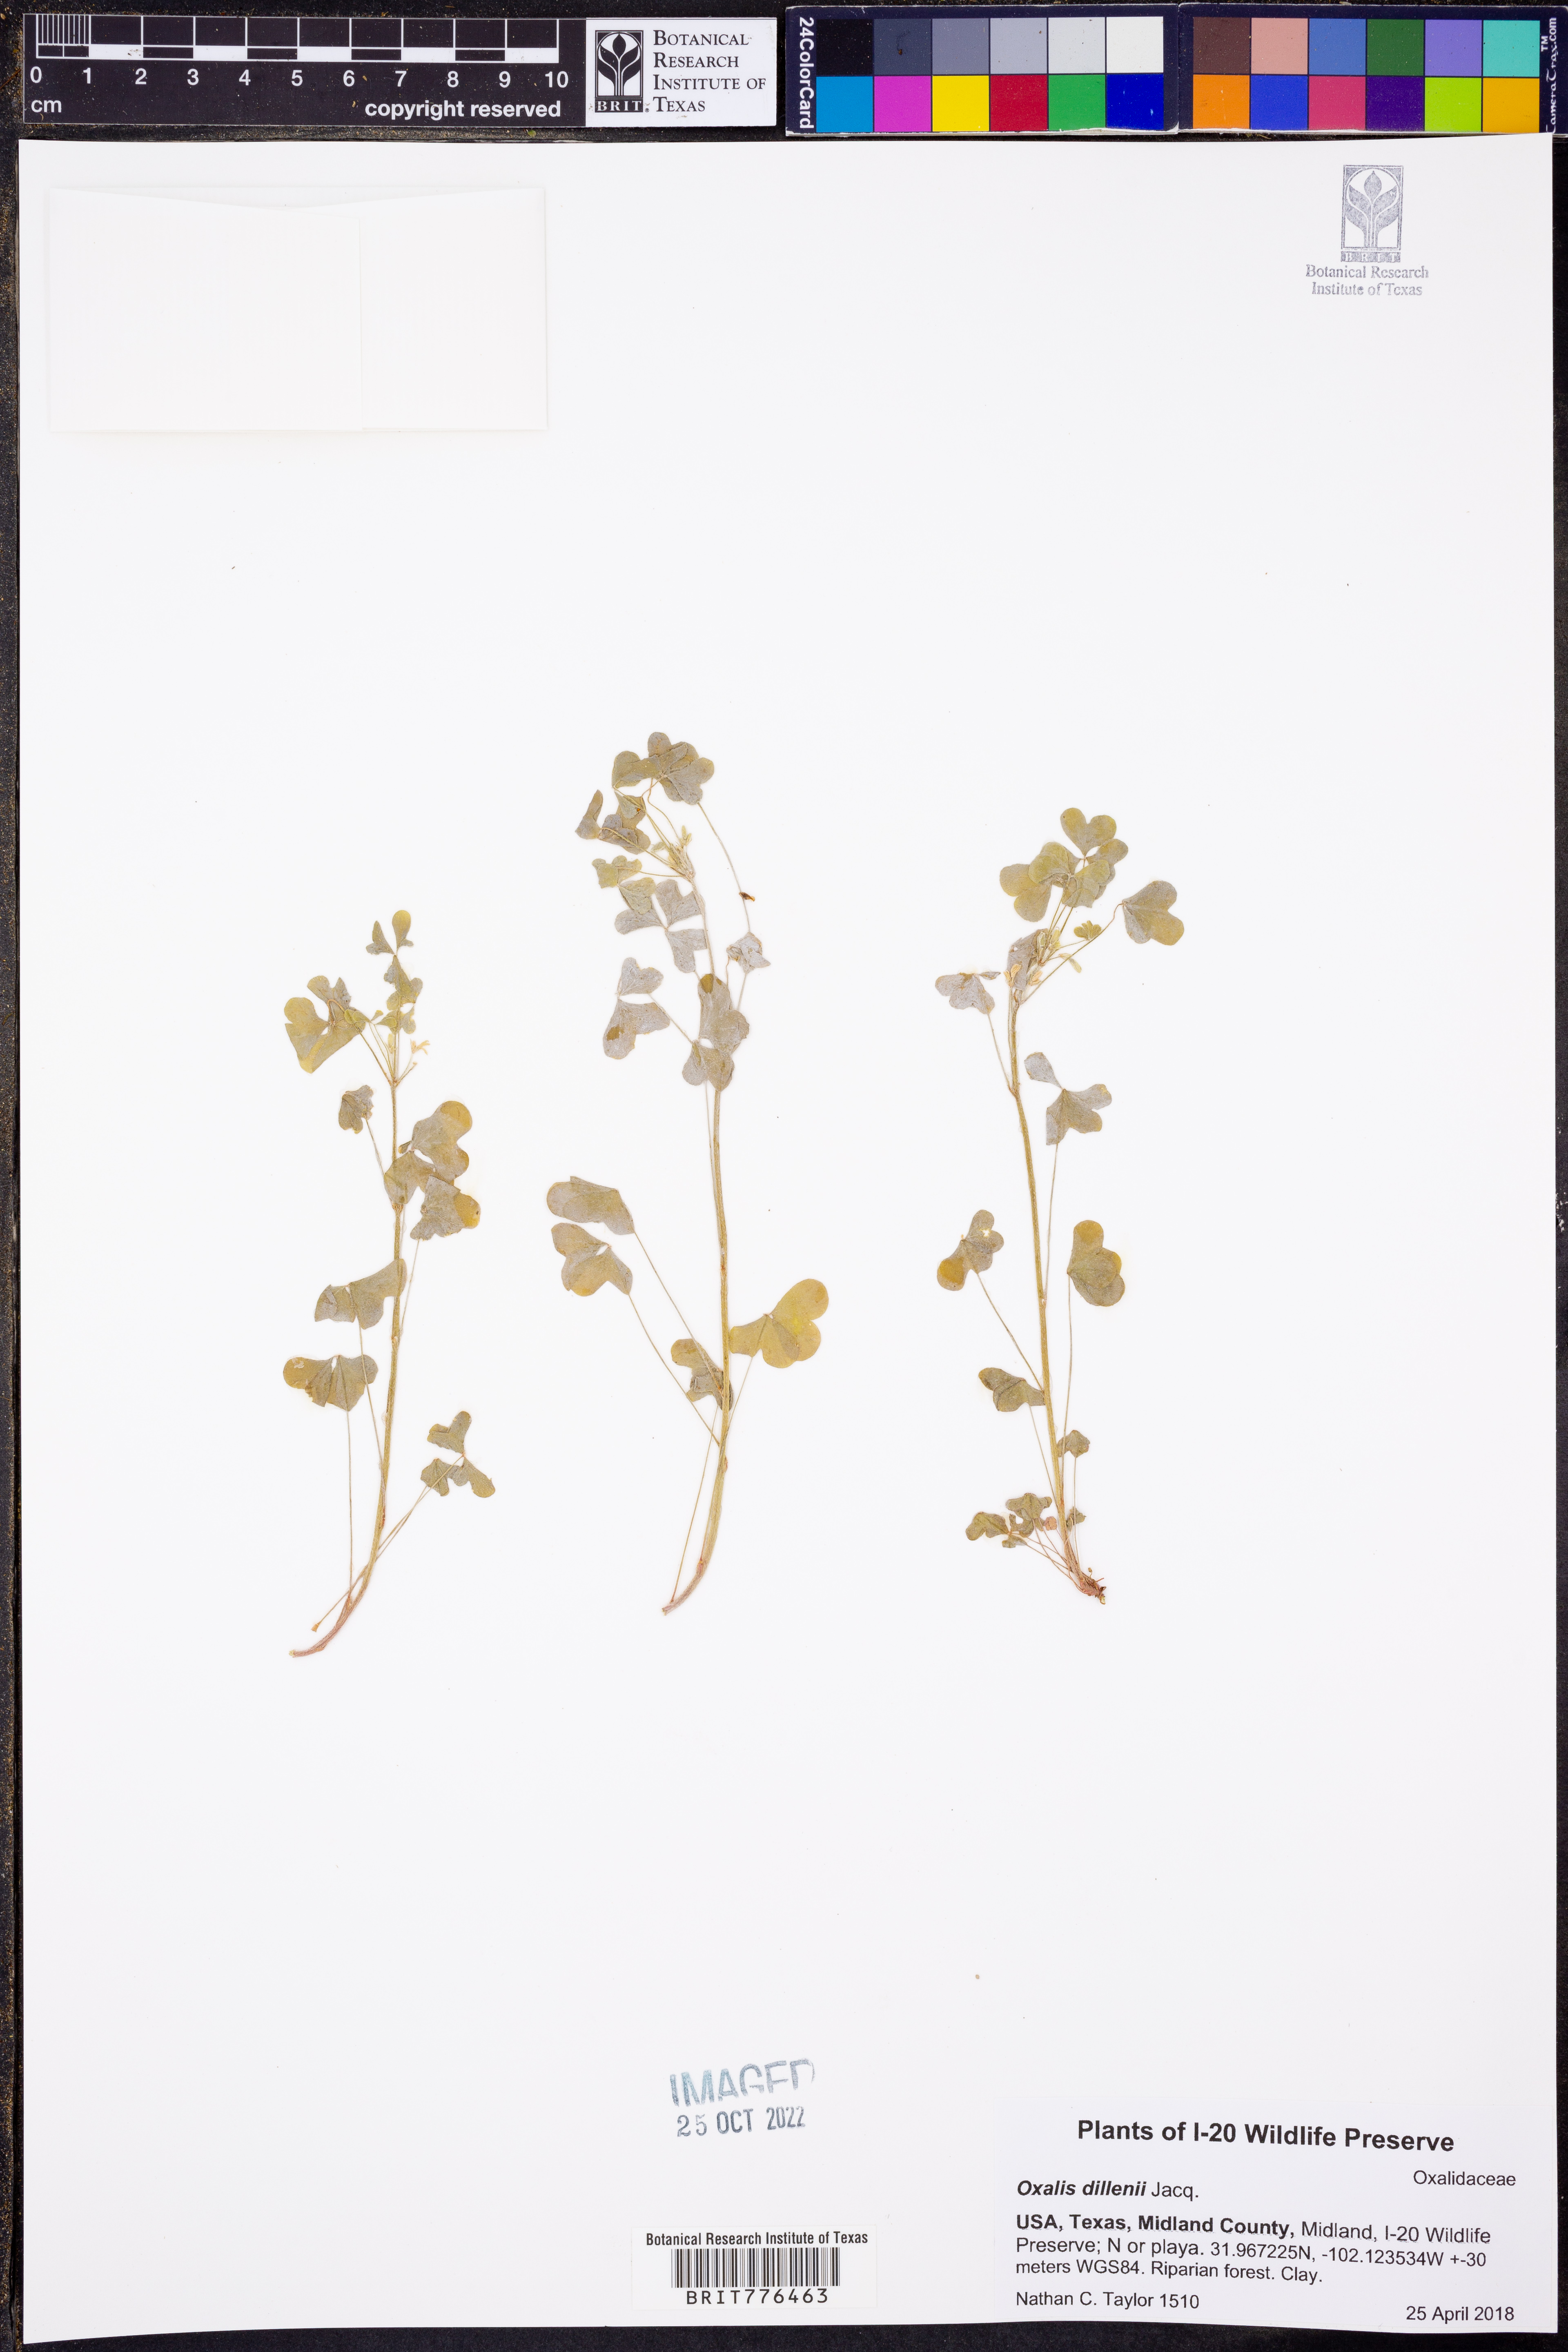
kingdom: Plantae
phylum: Tracheophyta
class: Magnoliopsida
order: Oxalidales
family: Oxalidaceae
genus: Oxalis
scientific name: Oxalis dillenii
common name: Sussex yellow-sorrel
